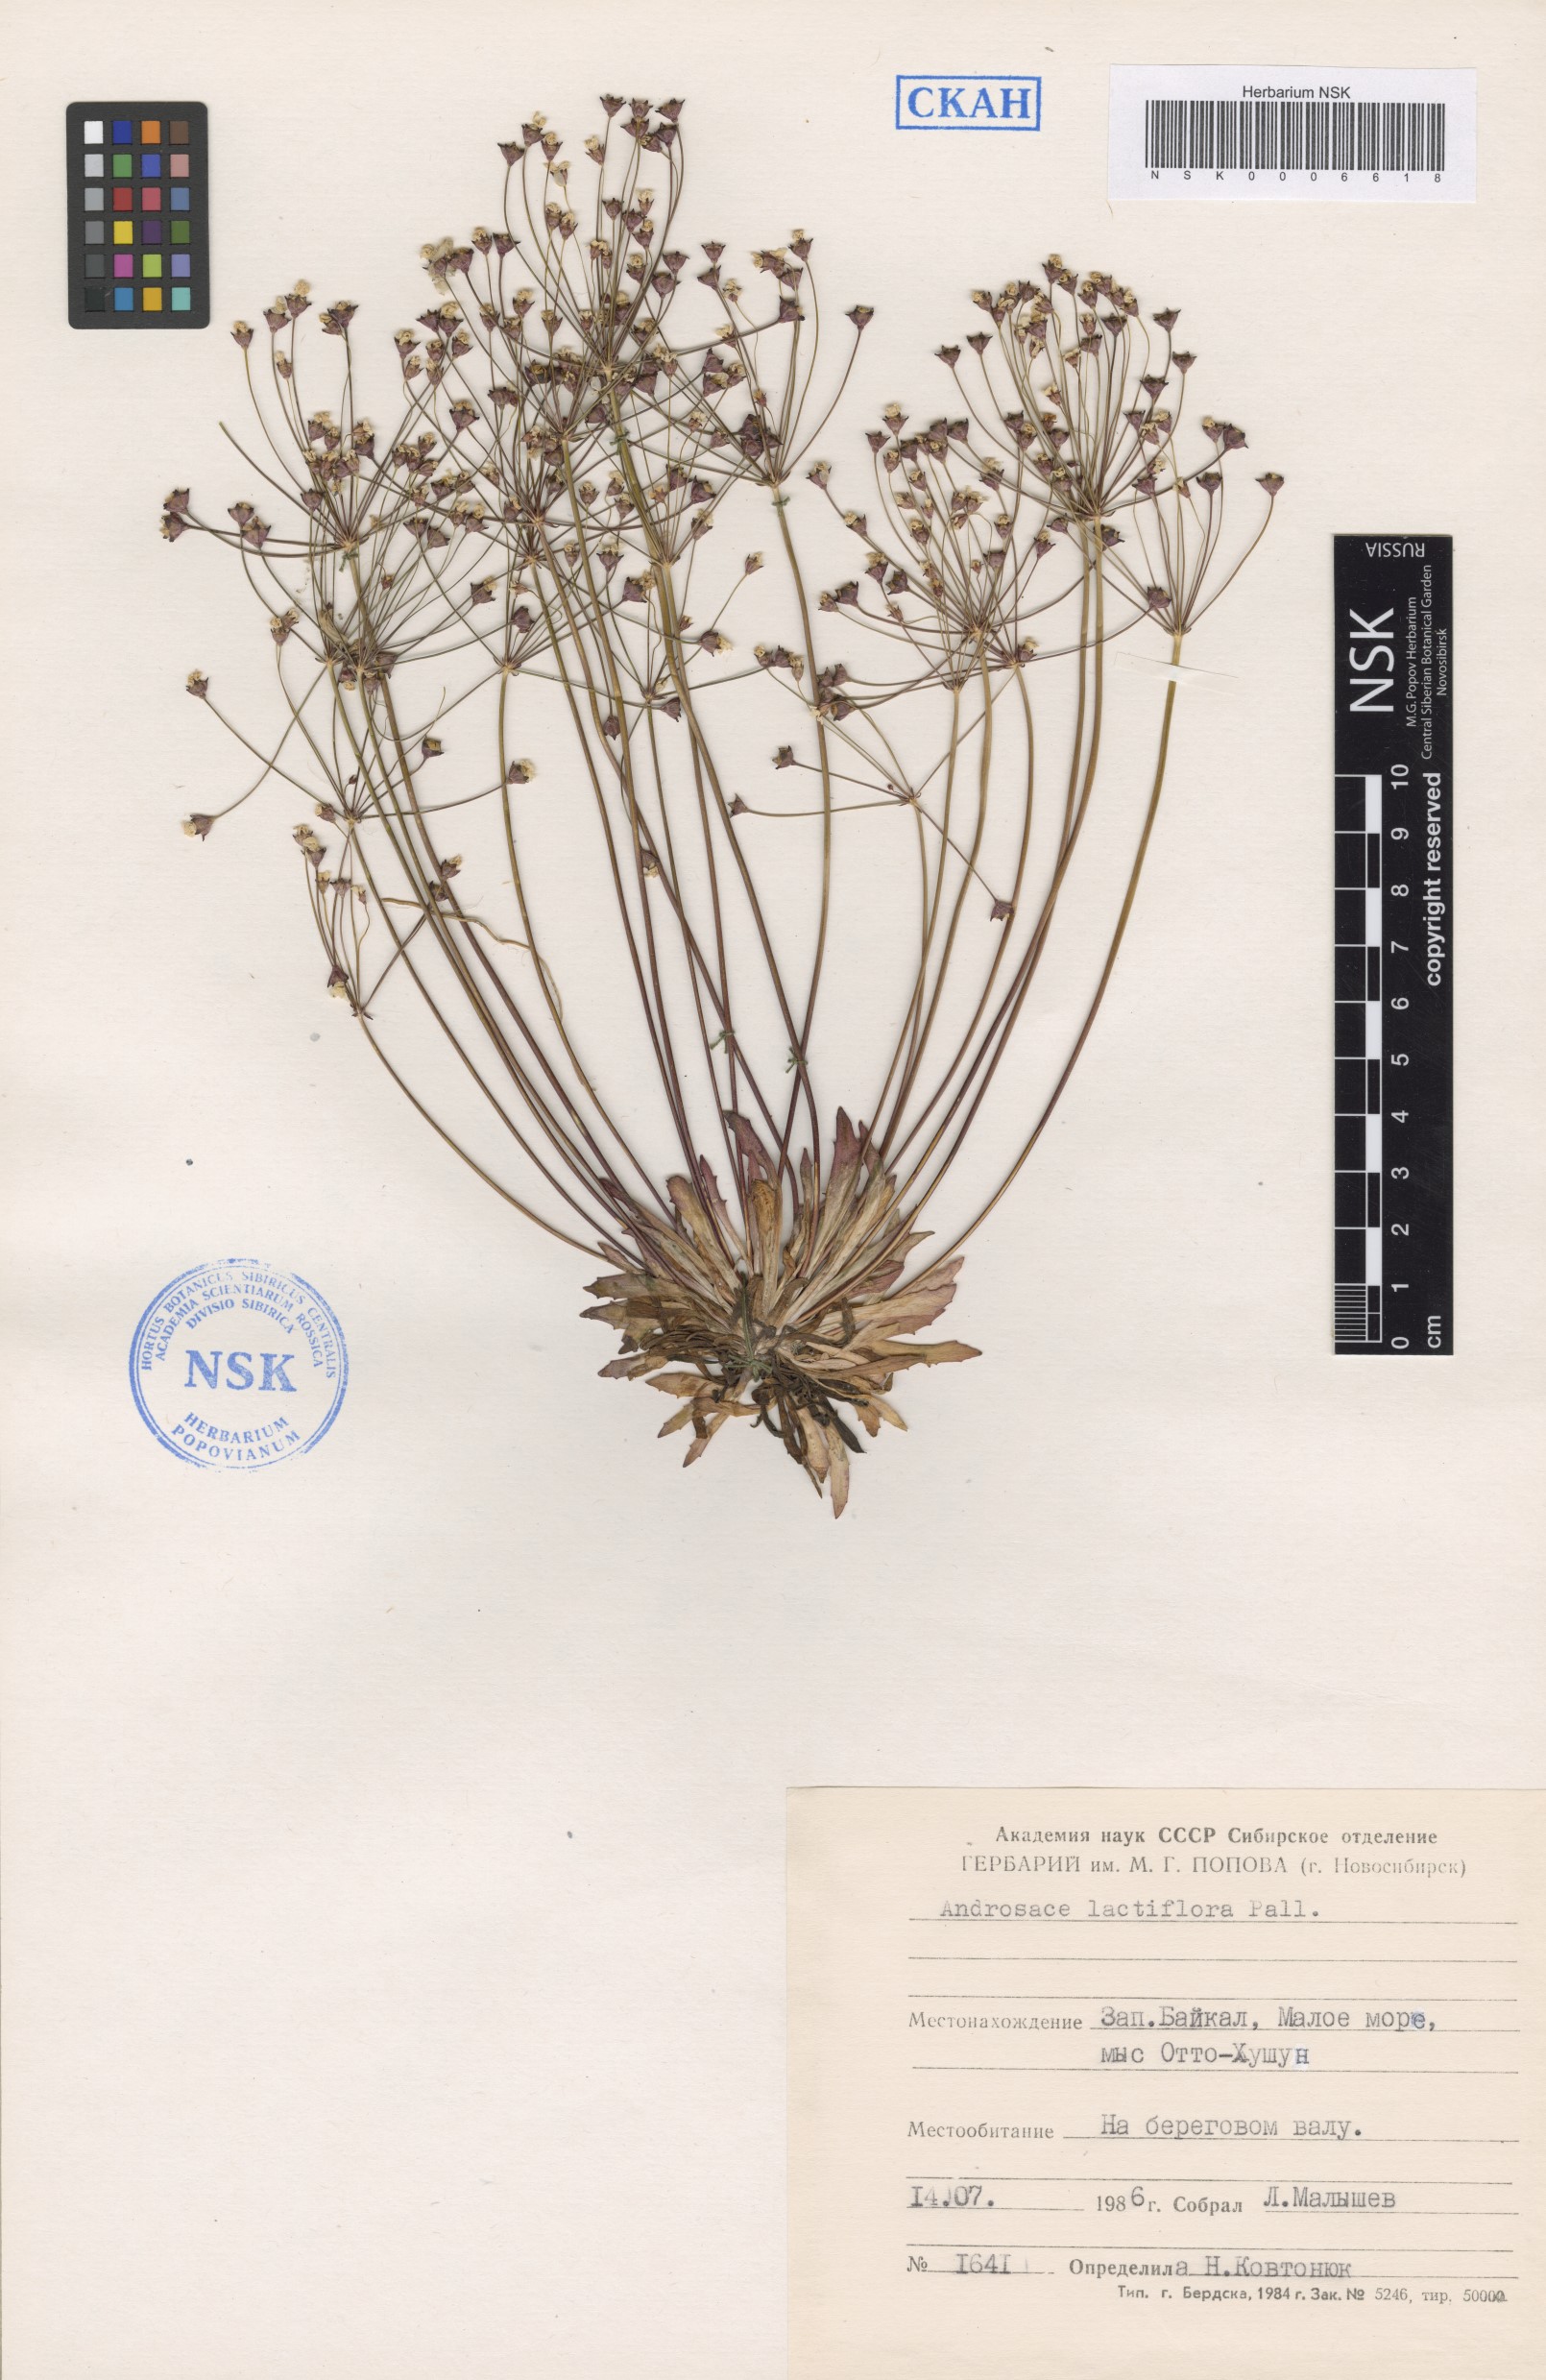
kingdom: Plantae
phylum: Tracheophyta
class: Magnoliopsida
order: Ericales
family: Primulaceae
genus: Androsace
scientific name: Androsace lactiflora
